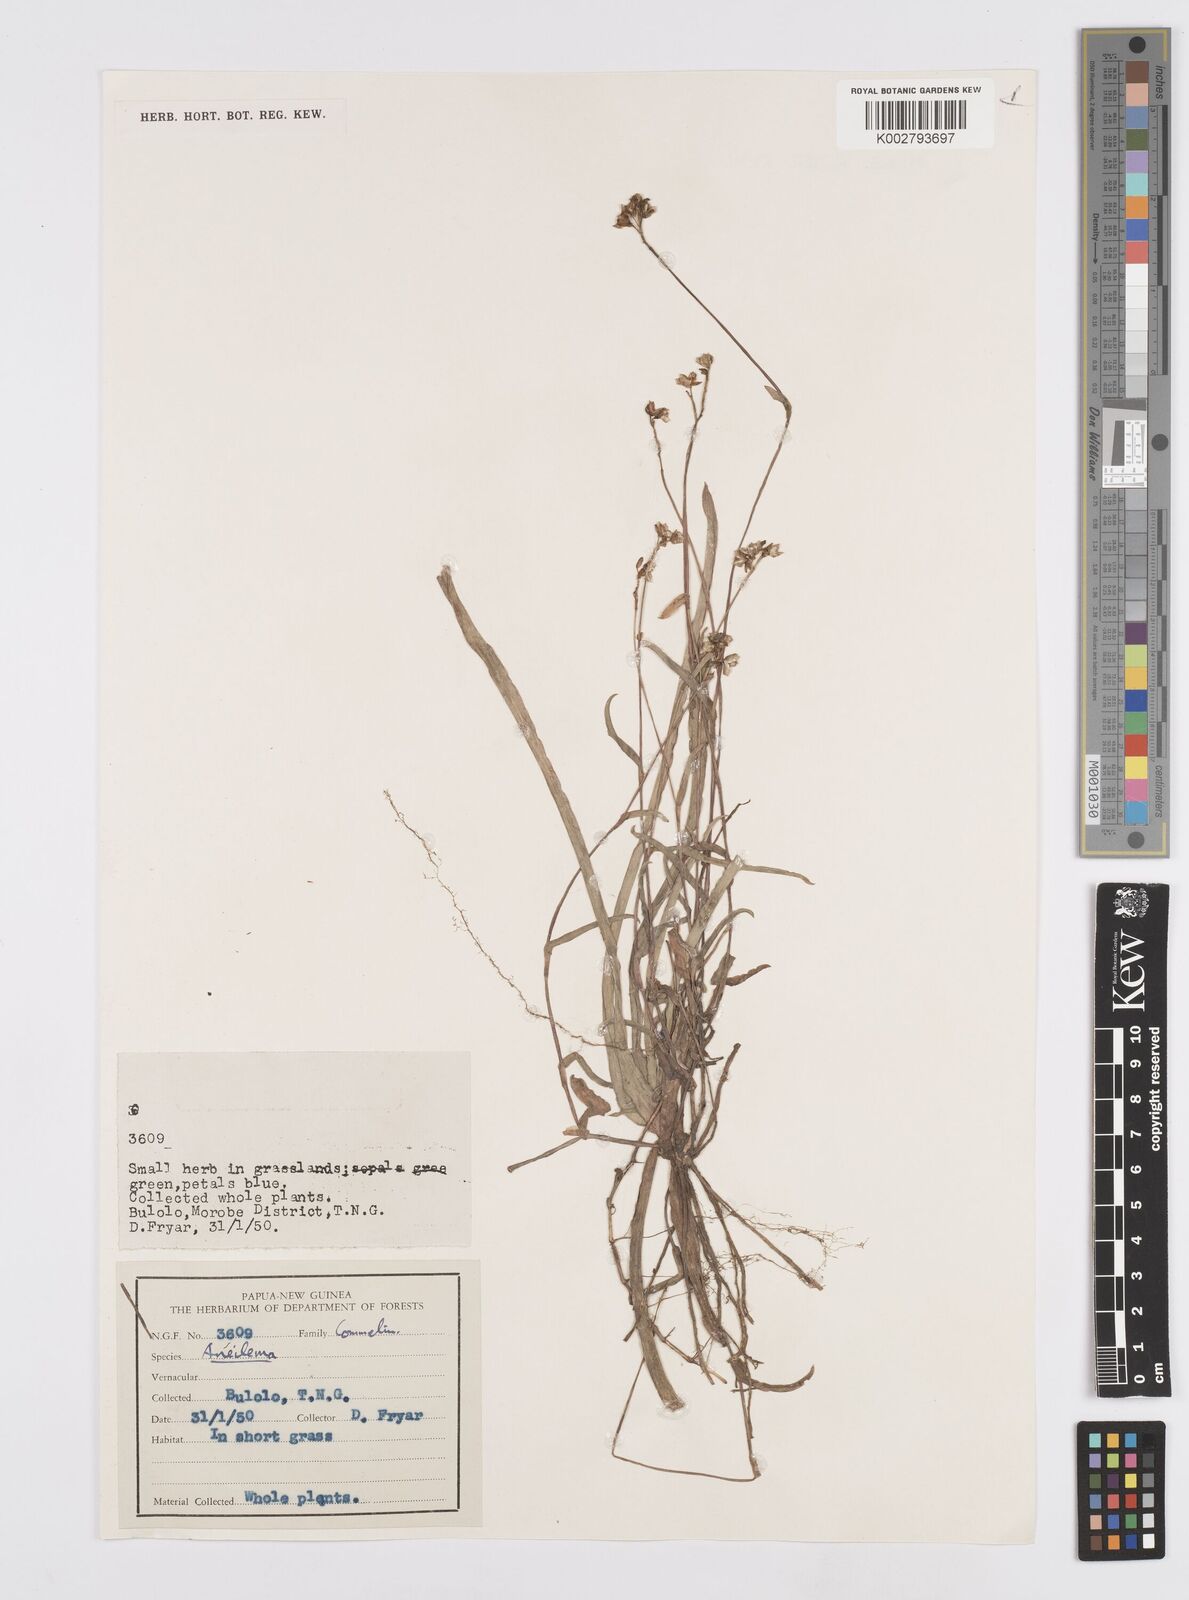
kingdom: Plantae
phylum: Tracheophyta
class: Liliopsida
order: Commelinales
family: Commelinaceae
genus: Murdannia
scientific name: Murdannia
